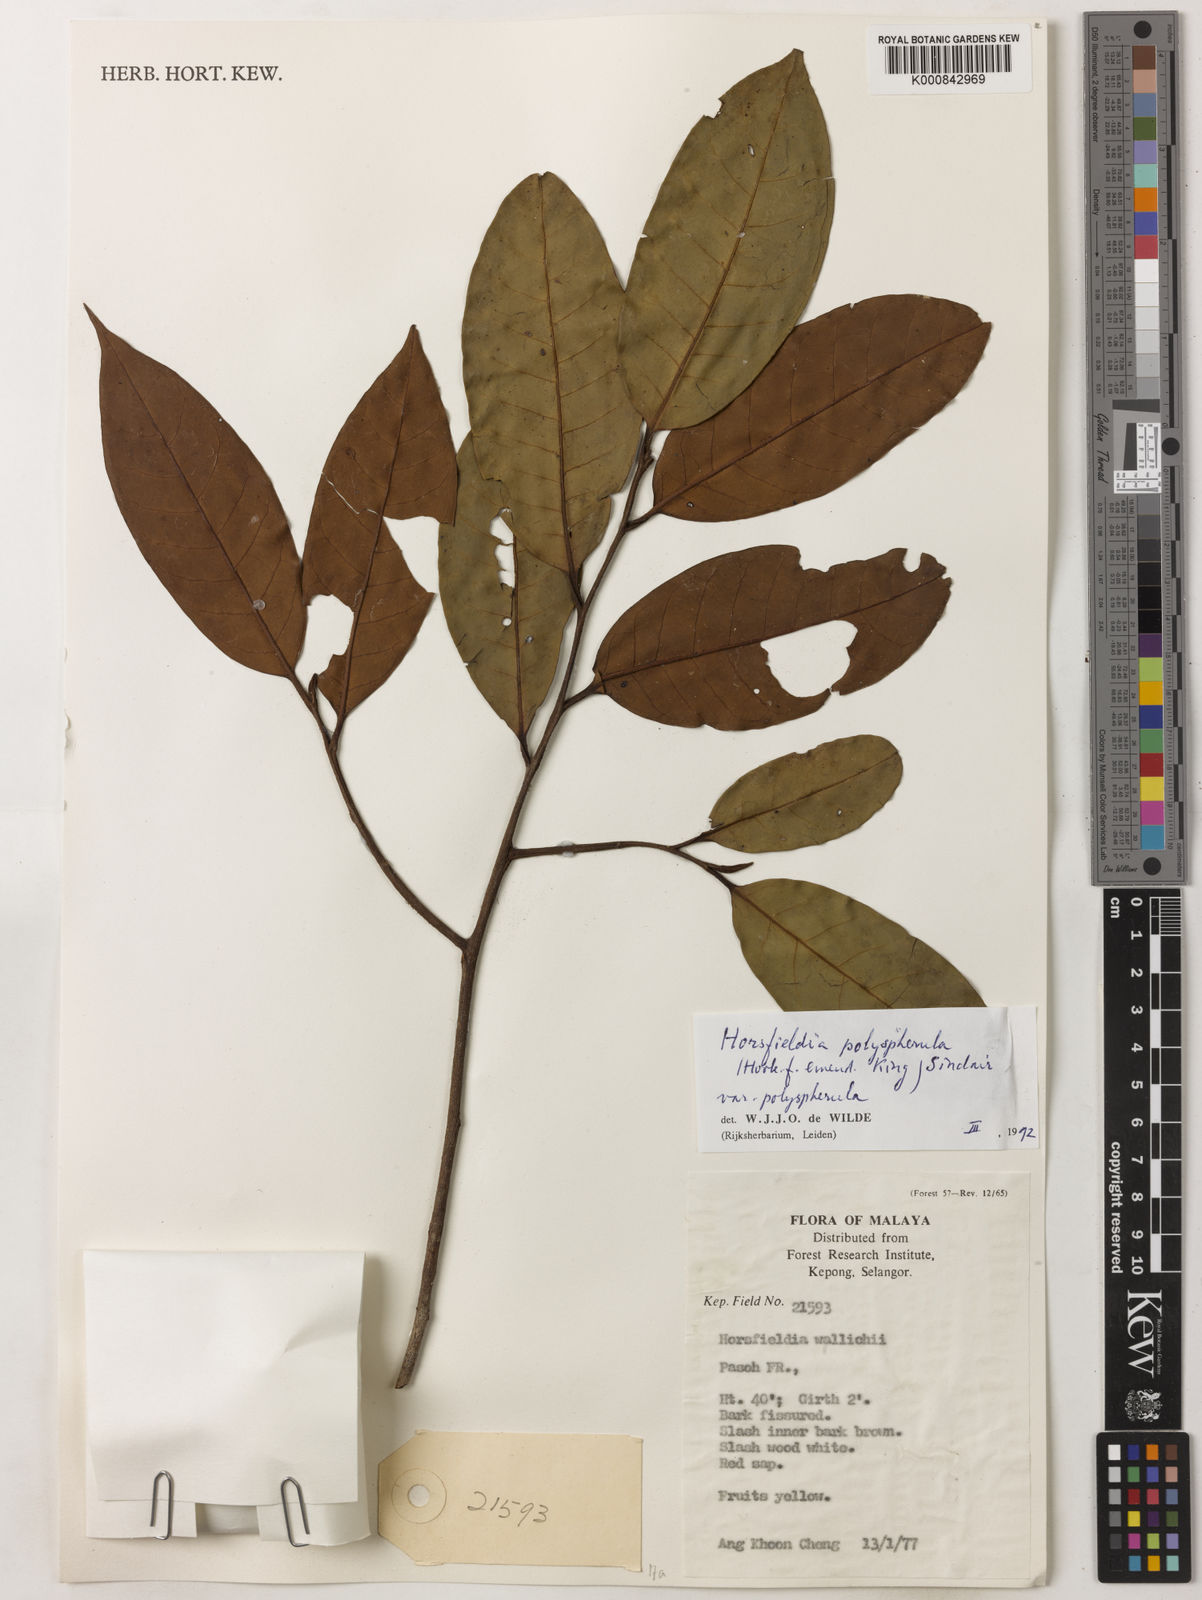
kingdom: Plantae
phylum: Tracheophyta
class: Magnoliopsida
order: Magnoliales
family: Myristicaceae
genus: Horsfieldia
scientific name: Horsfieldia
